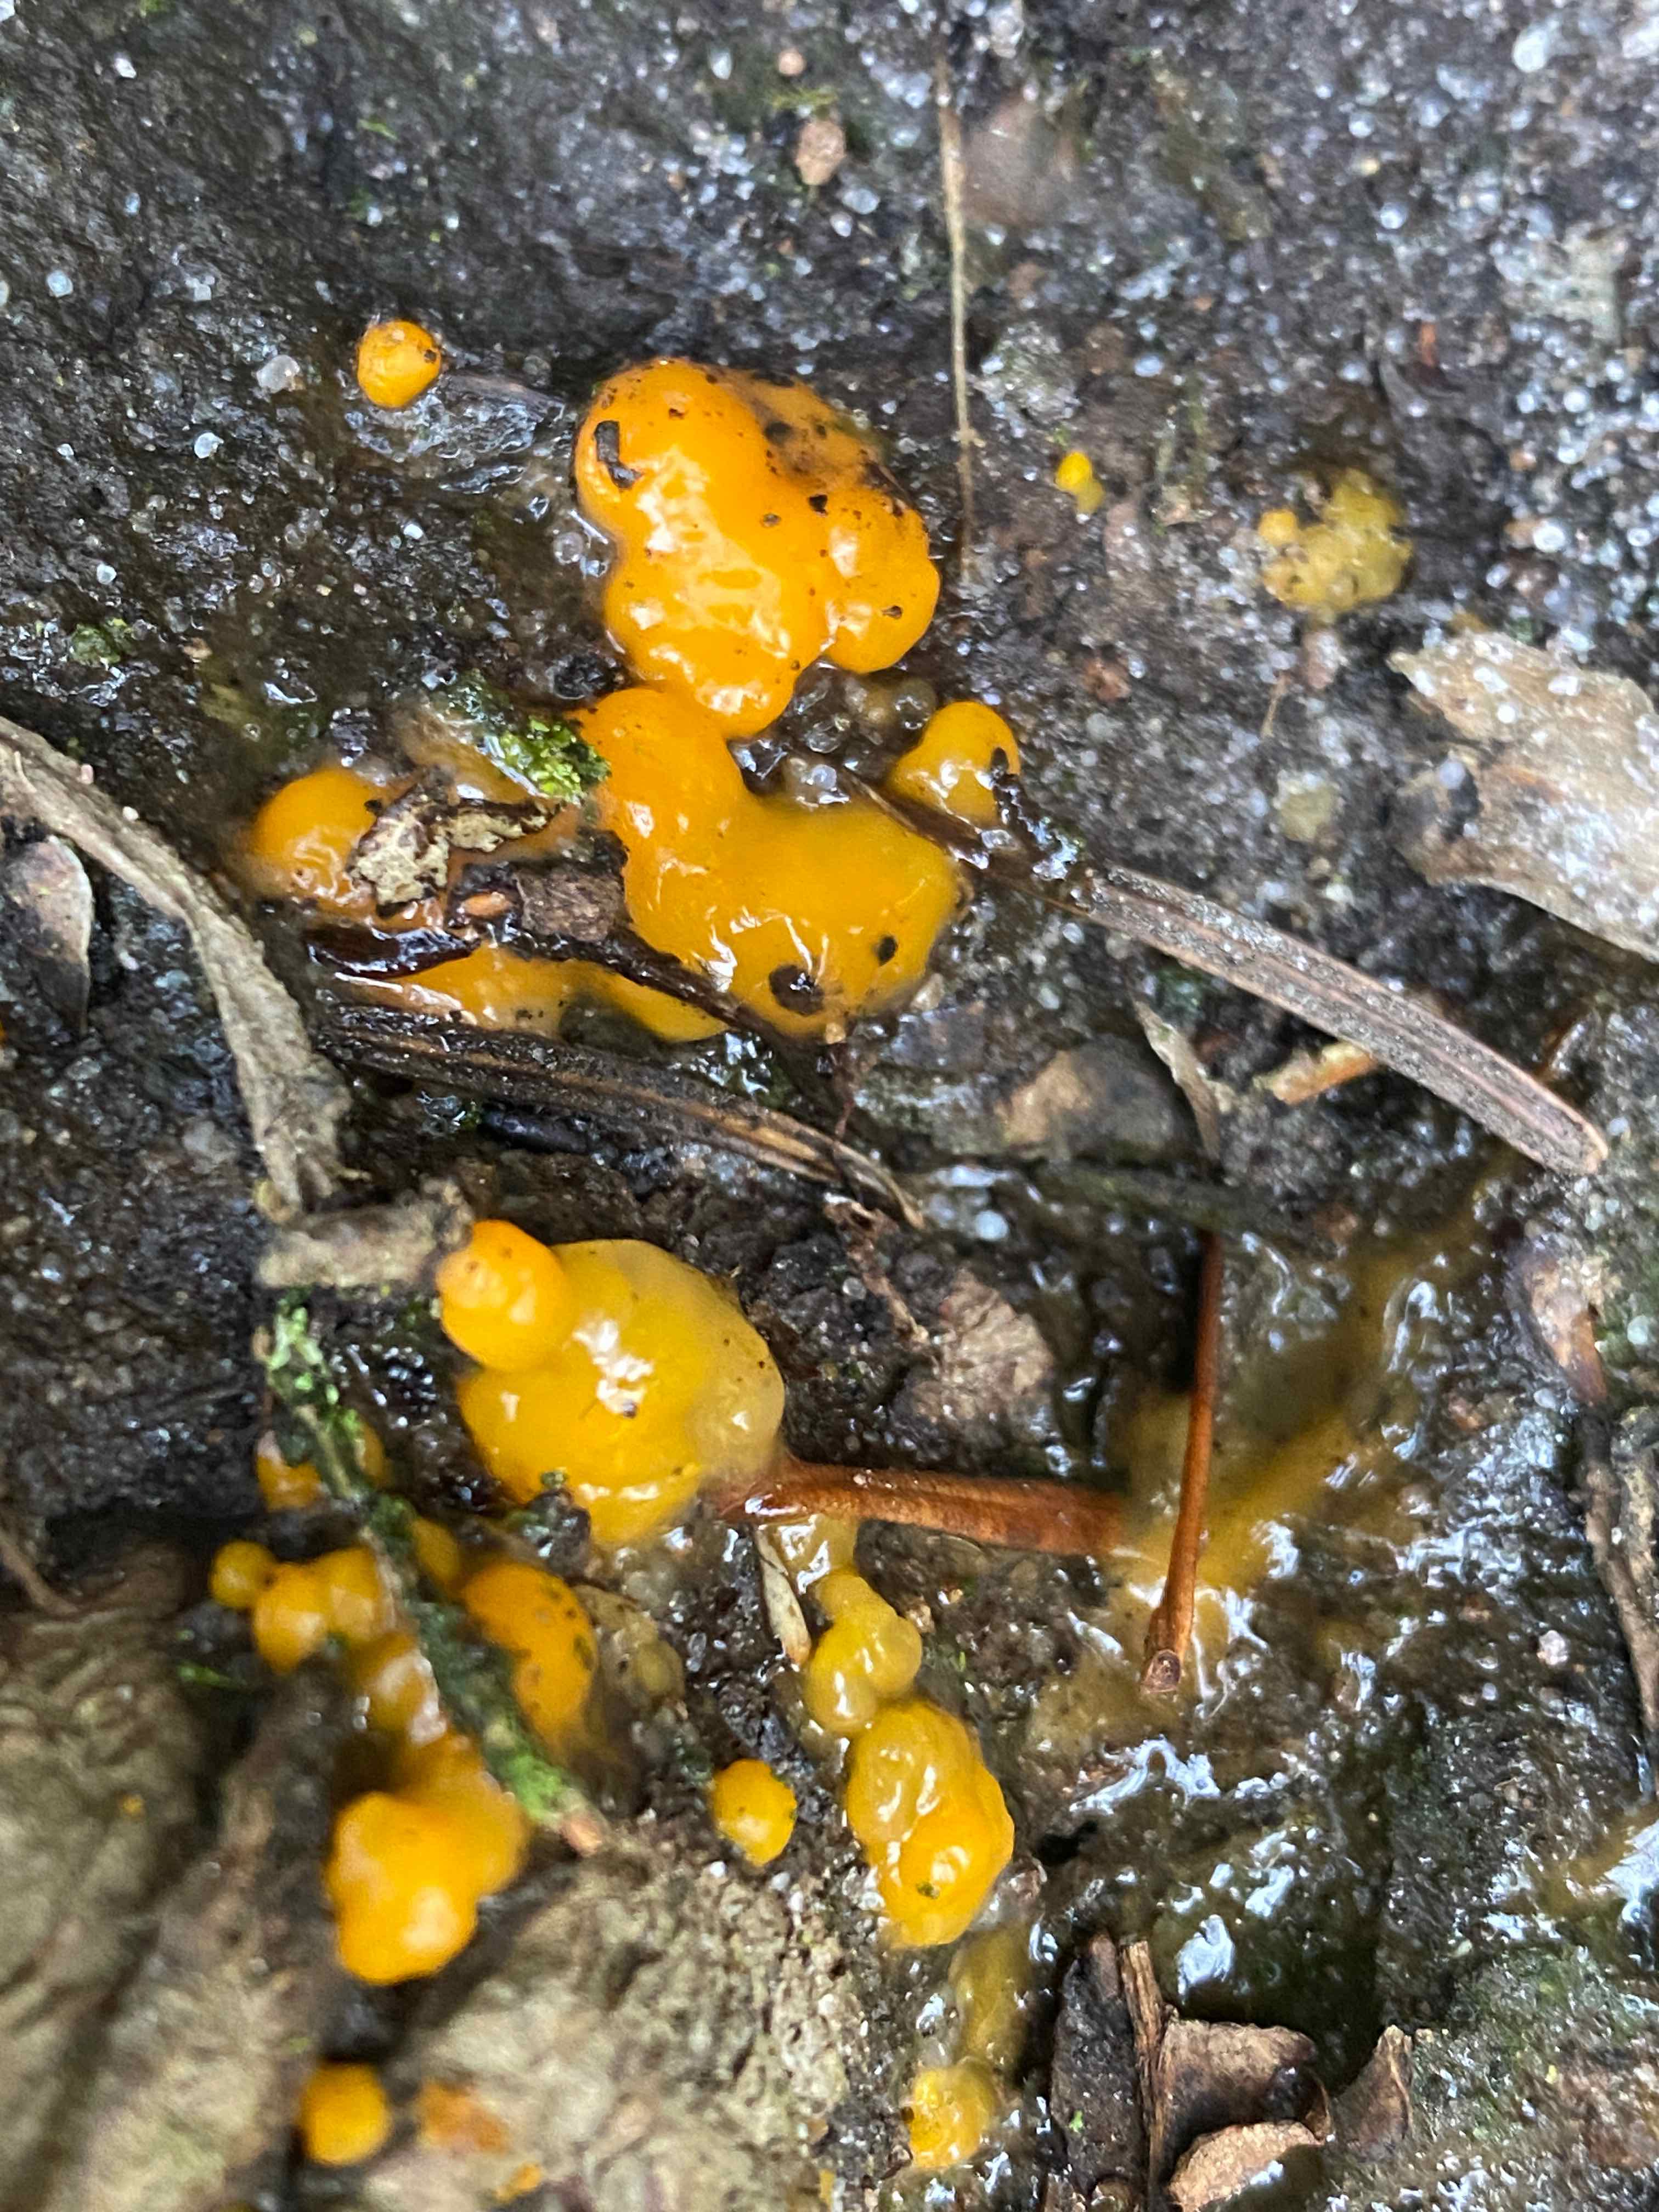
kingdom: Fungi
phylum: Basidiomycota
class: Dacrymycetes
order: Dacrymycetales
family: Dacrymycetaceae
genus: Dacrymyces
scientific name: Dacrymyces stillatus
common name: almindelig tåresvamp
